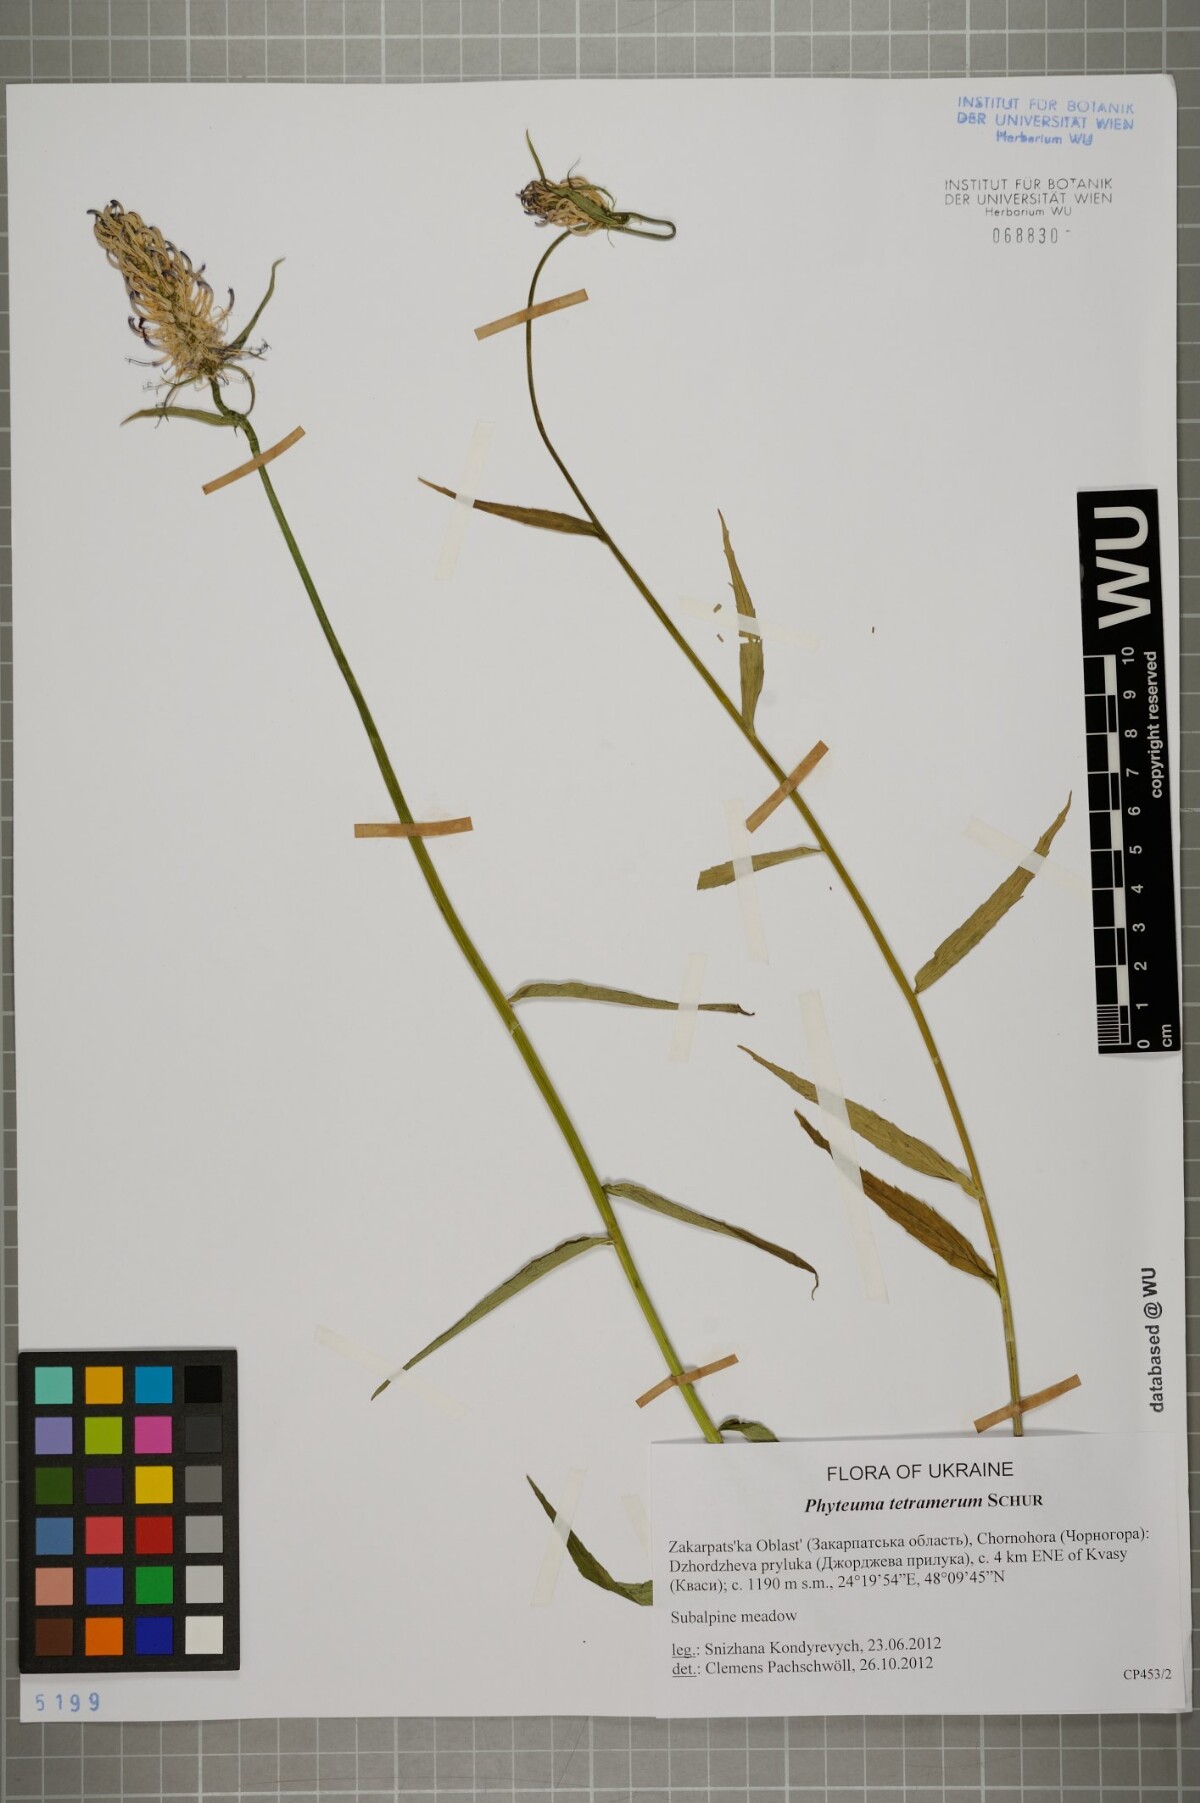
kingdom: Plantae
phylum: Tracheophyta
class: Magnoliopsida
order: Asterales
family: Campanulaceae
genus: Phyteuma
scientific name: Phyteuma tetramerum
